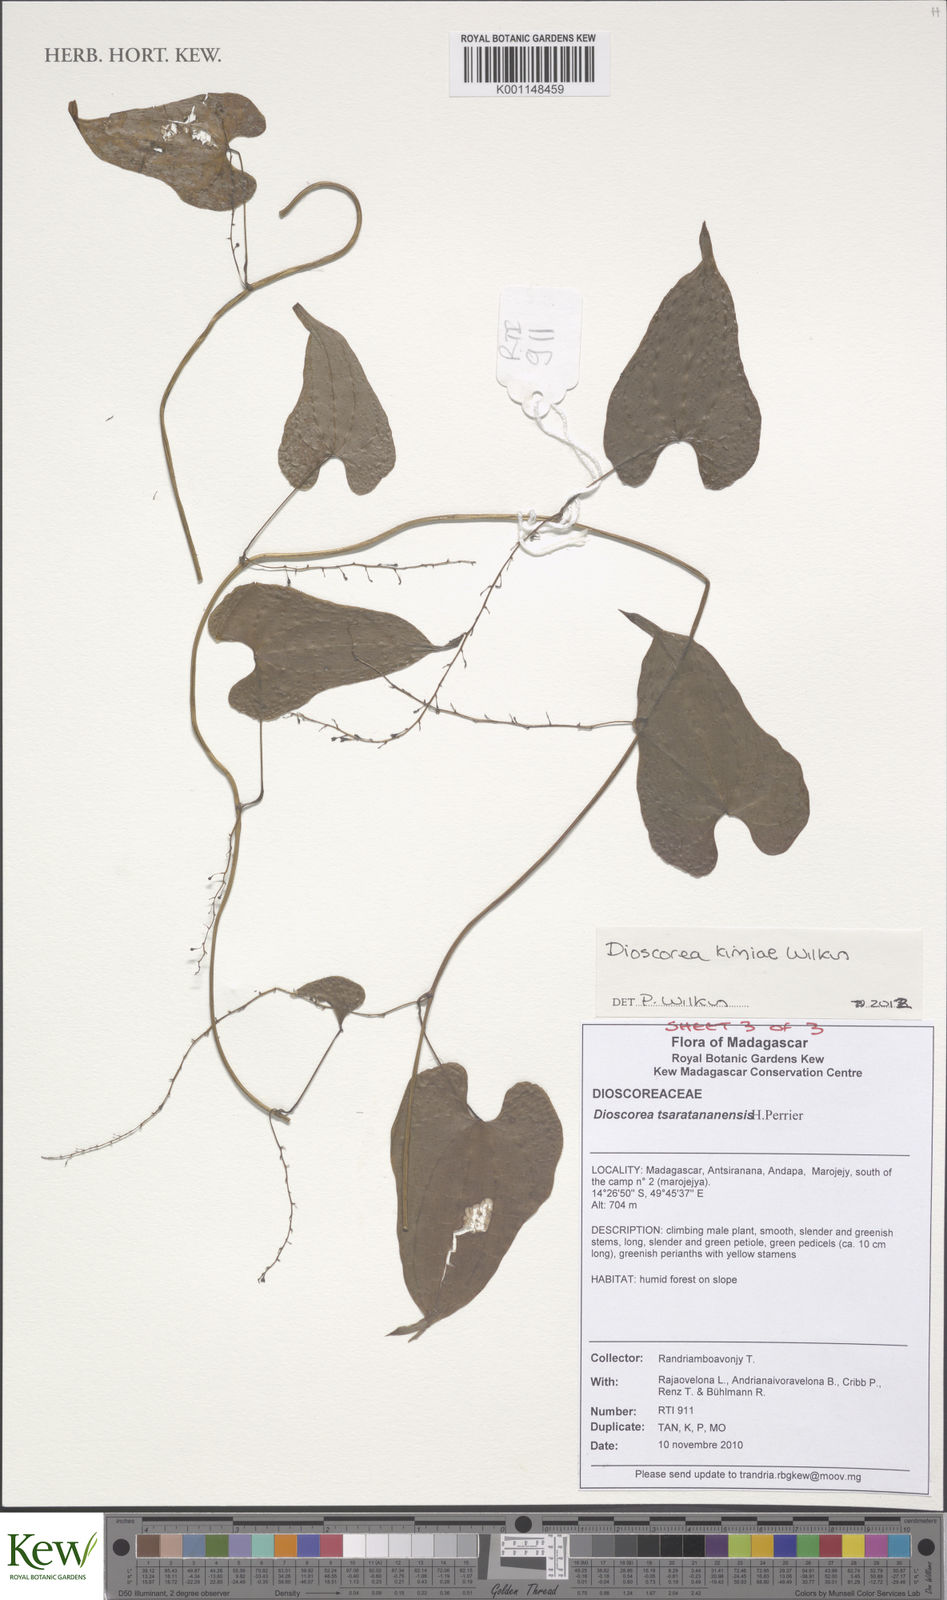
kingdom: Plantae
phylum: Tracheophyta
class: Liliopsida
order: Dioscoreales
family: Dioscoreaceae
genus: Dioscorea
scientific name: Dioscorea kimiae
